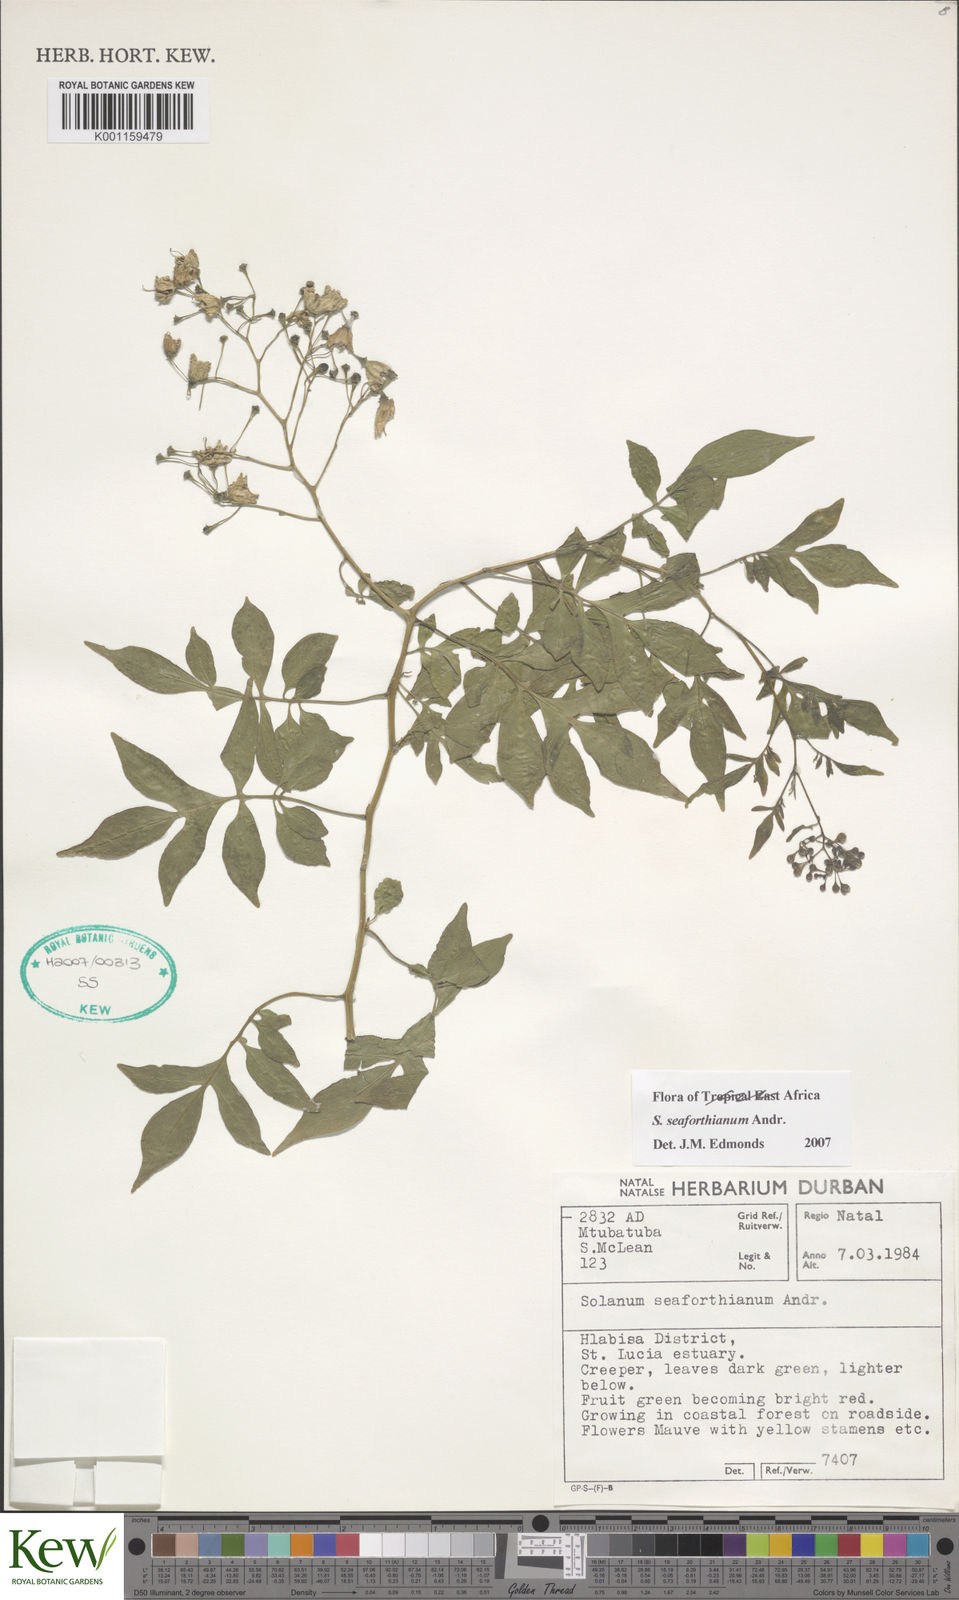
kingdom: Plantae
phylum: Tracheophyta
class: Magnoliopsida
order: Solanales
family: Solanaceae
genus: Solanum
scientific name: Solanum seaforthianum
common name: Brazilian nightshade
